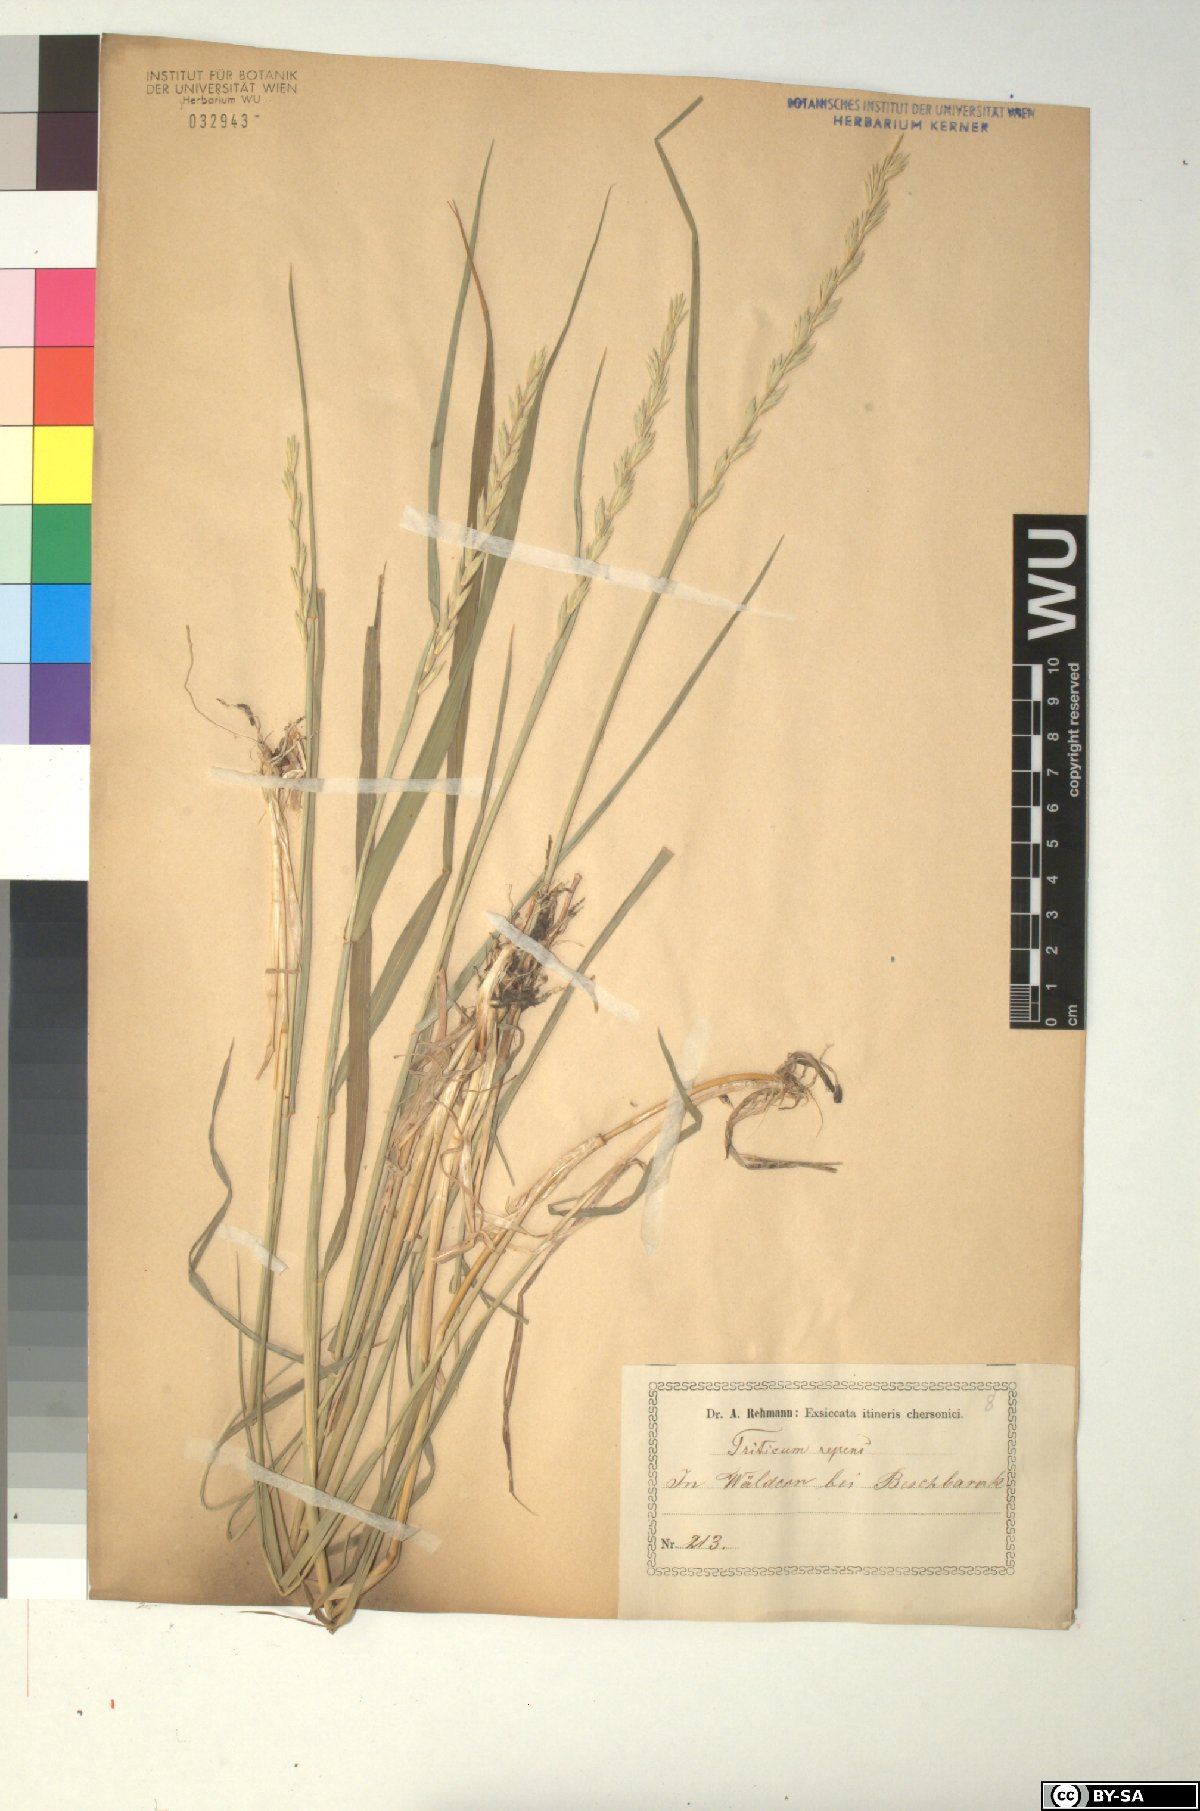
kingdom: Plantae
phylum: Tracheophyta
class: Liliopsida
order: Poales
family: Poaceae
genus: Elymus
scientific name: Elymus repens
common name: Quackgrass
